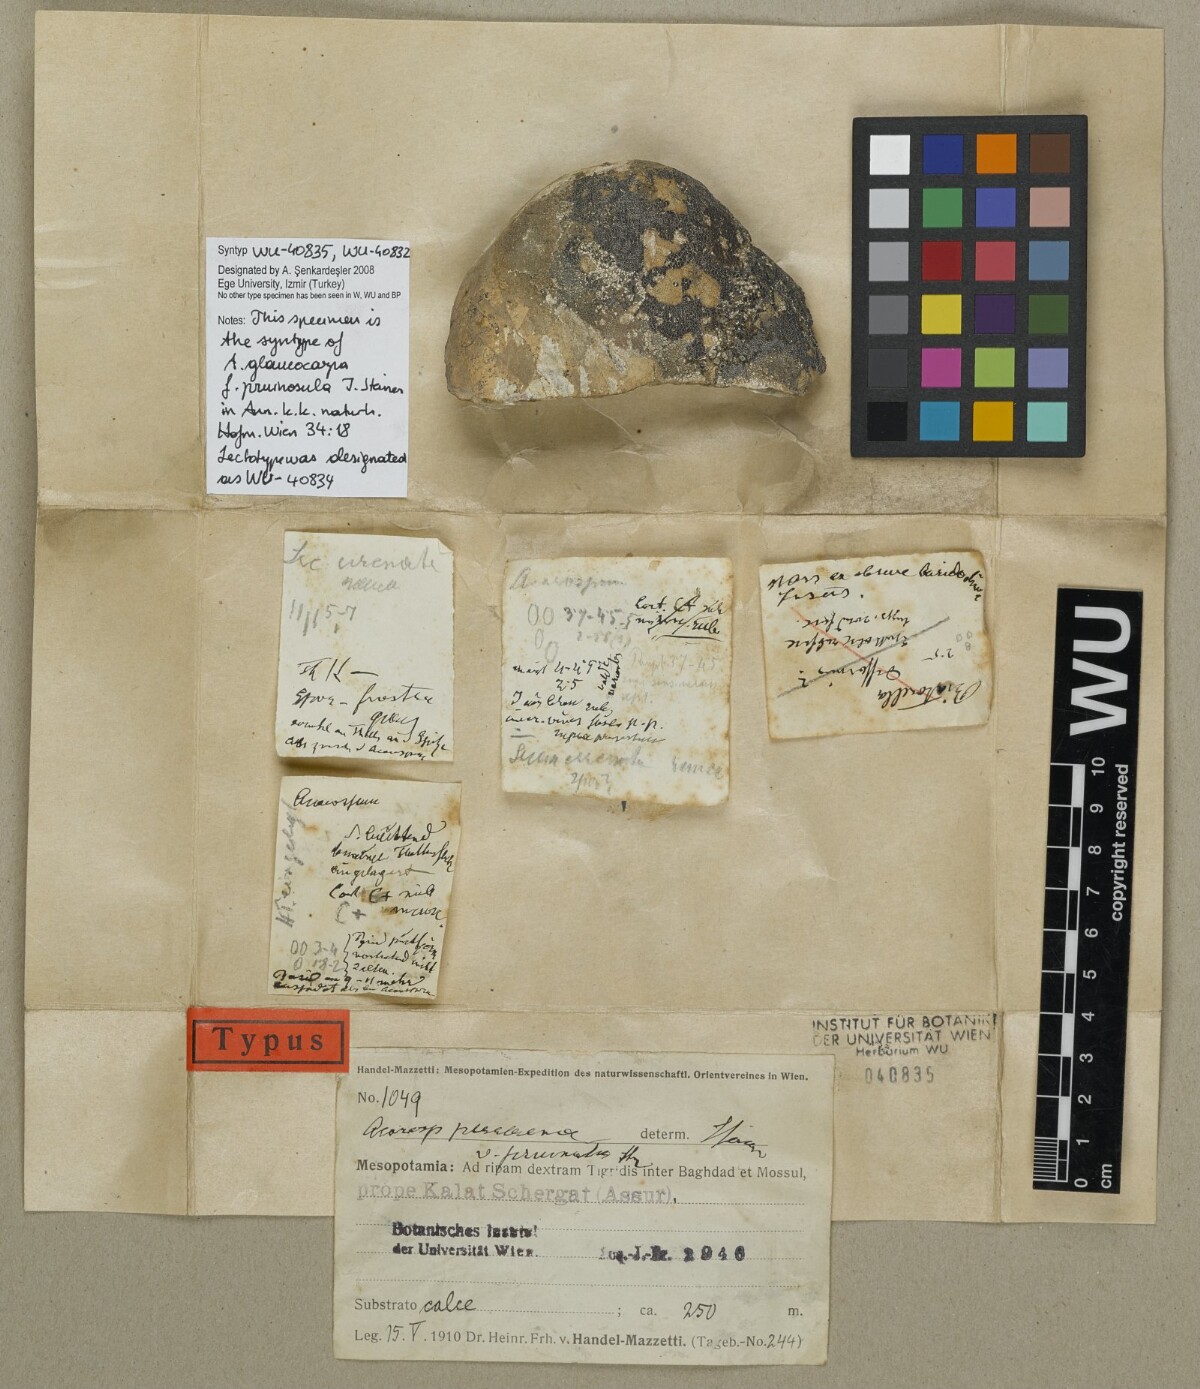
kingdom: Fungi
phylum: Ascomycota
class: Lecanoromycetes
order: Acarosporales
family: Acarosporaceae
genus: Acarospora
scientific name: Acarospora cervina
